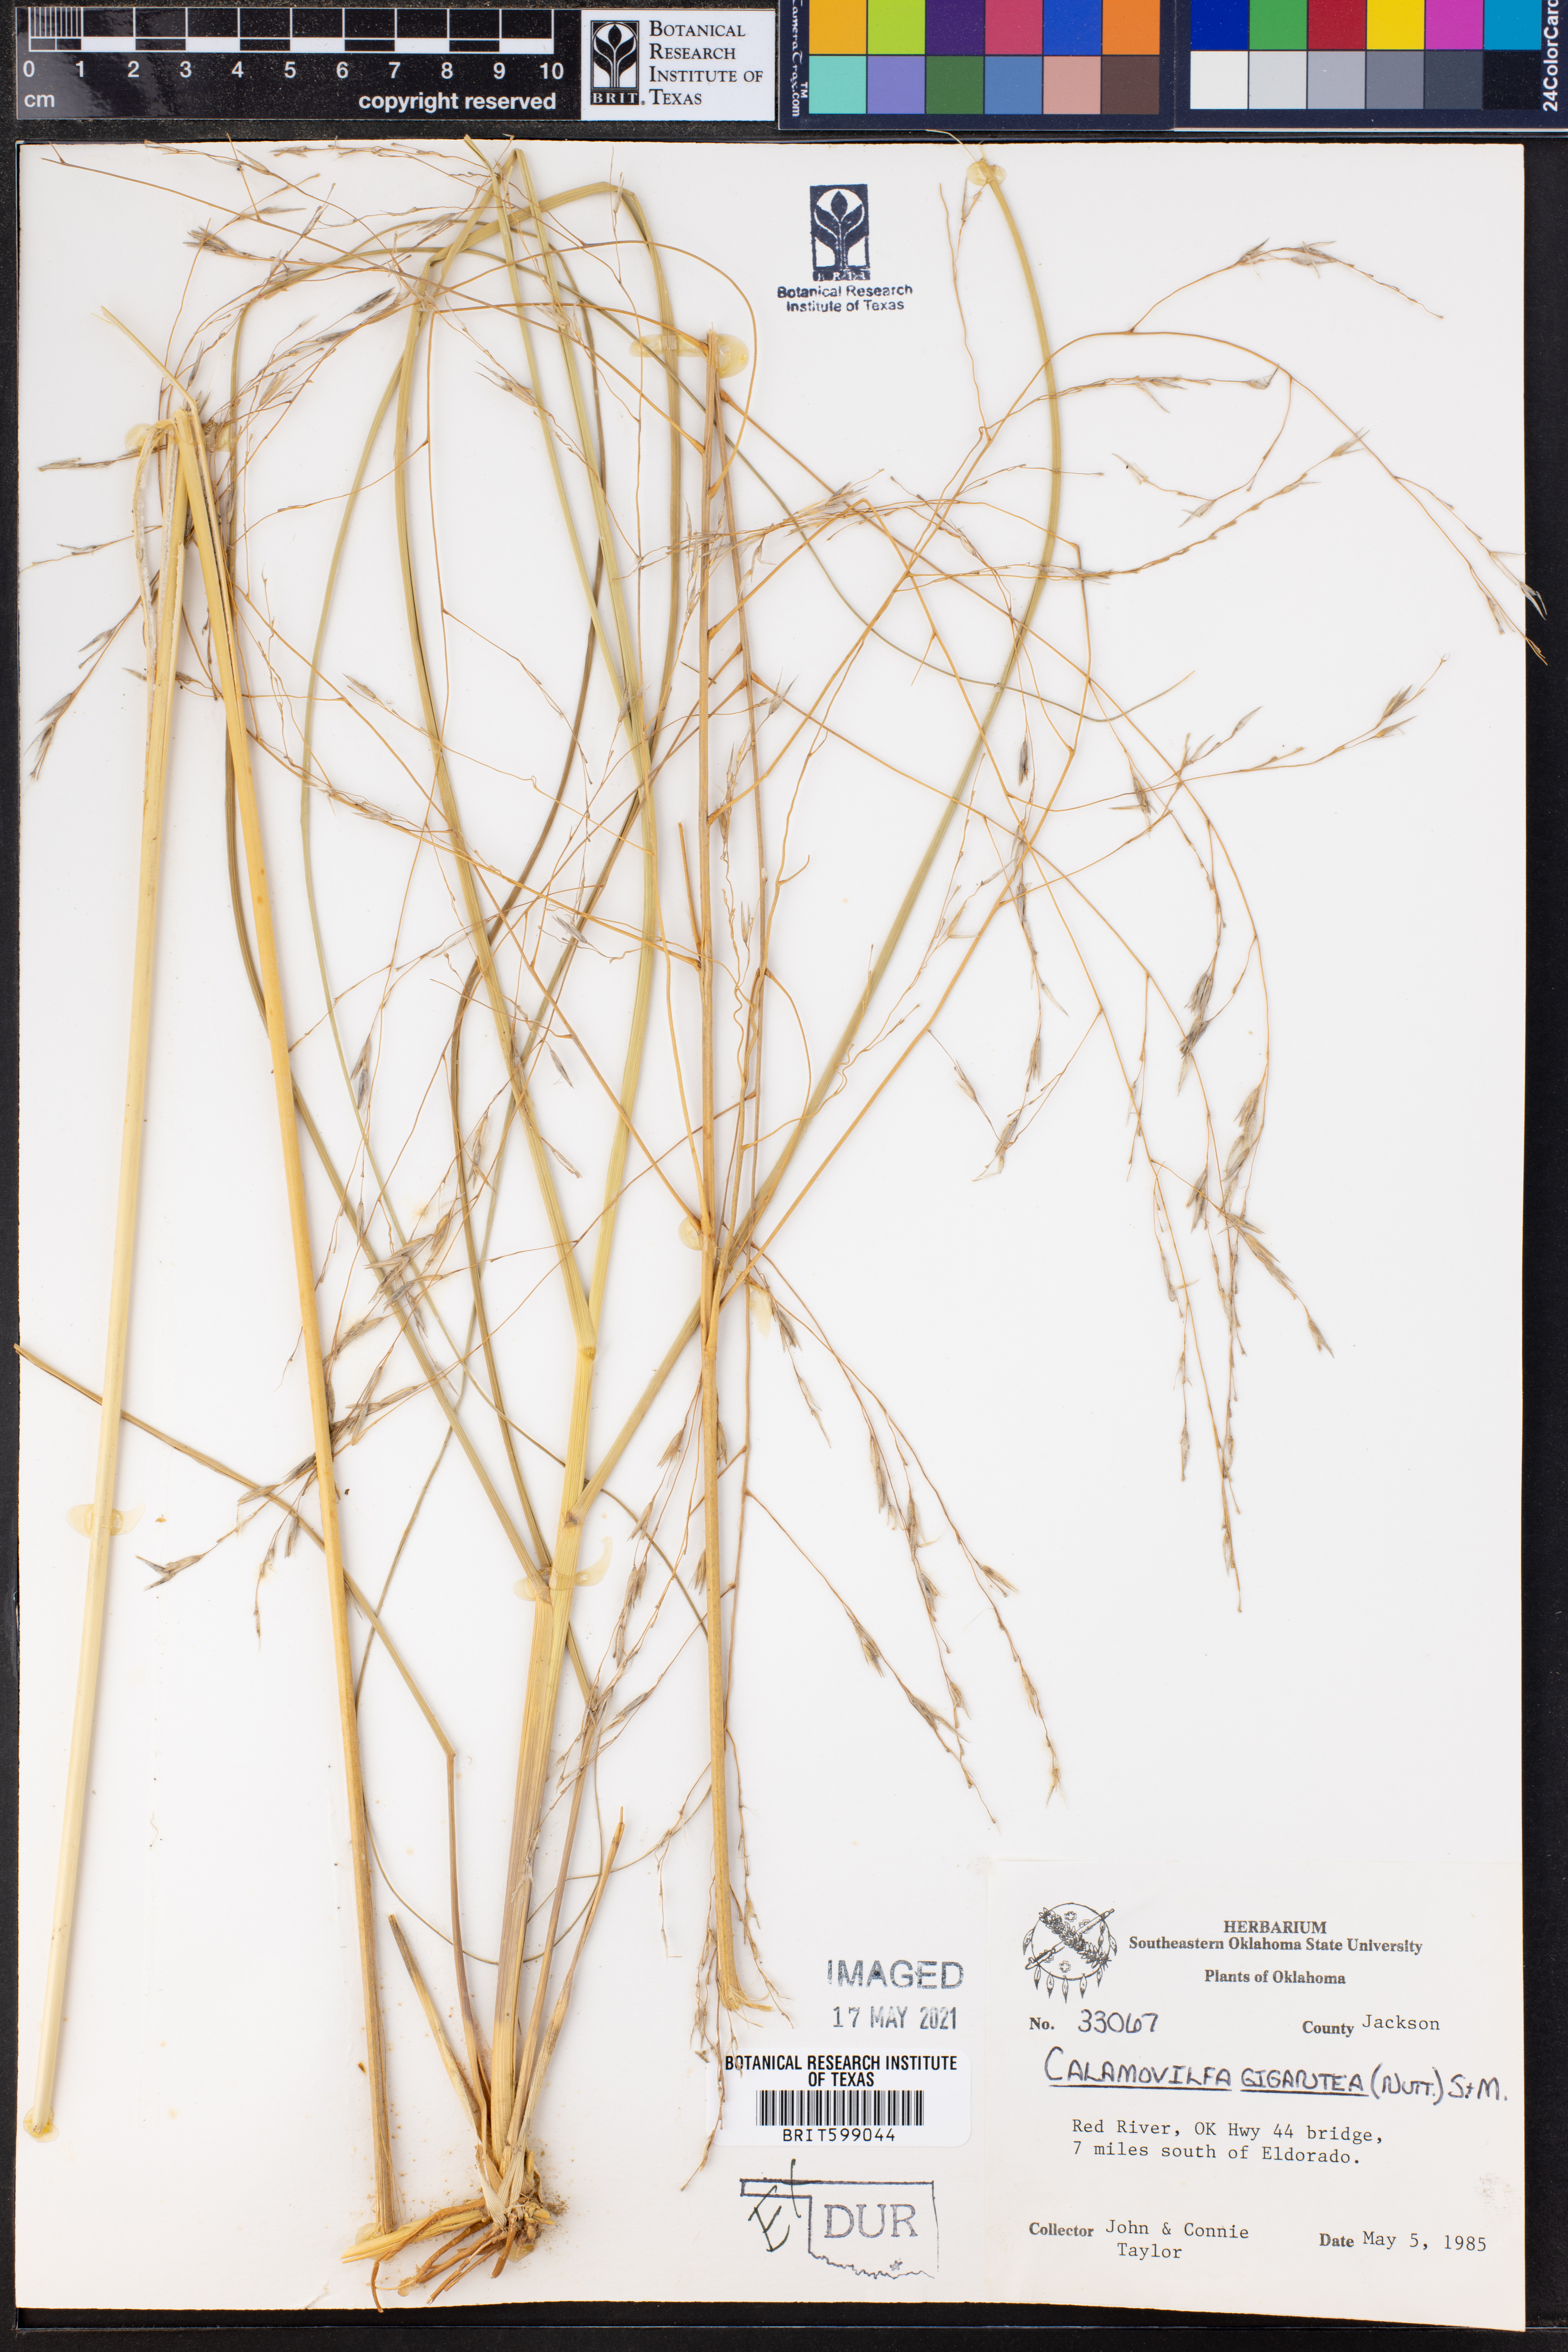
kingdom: Plantae
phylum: Tracheophyta
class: Liliopsida
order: Poales
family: Poaceae
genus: Sporobolus
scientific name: Sporobolus arenicola
